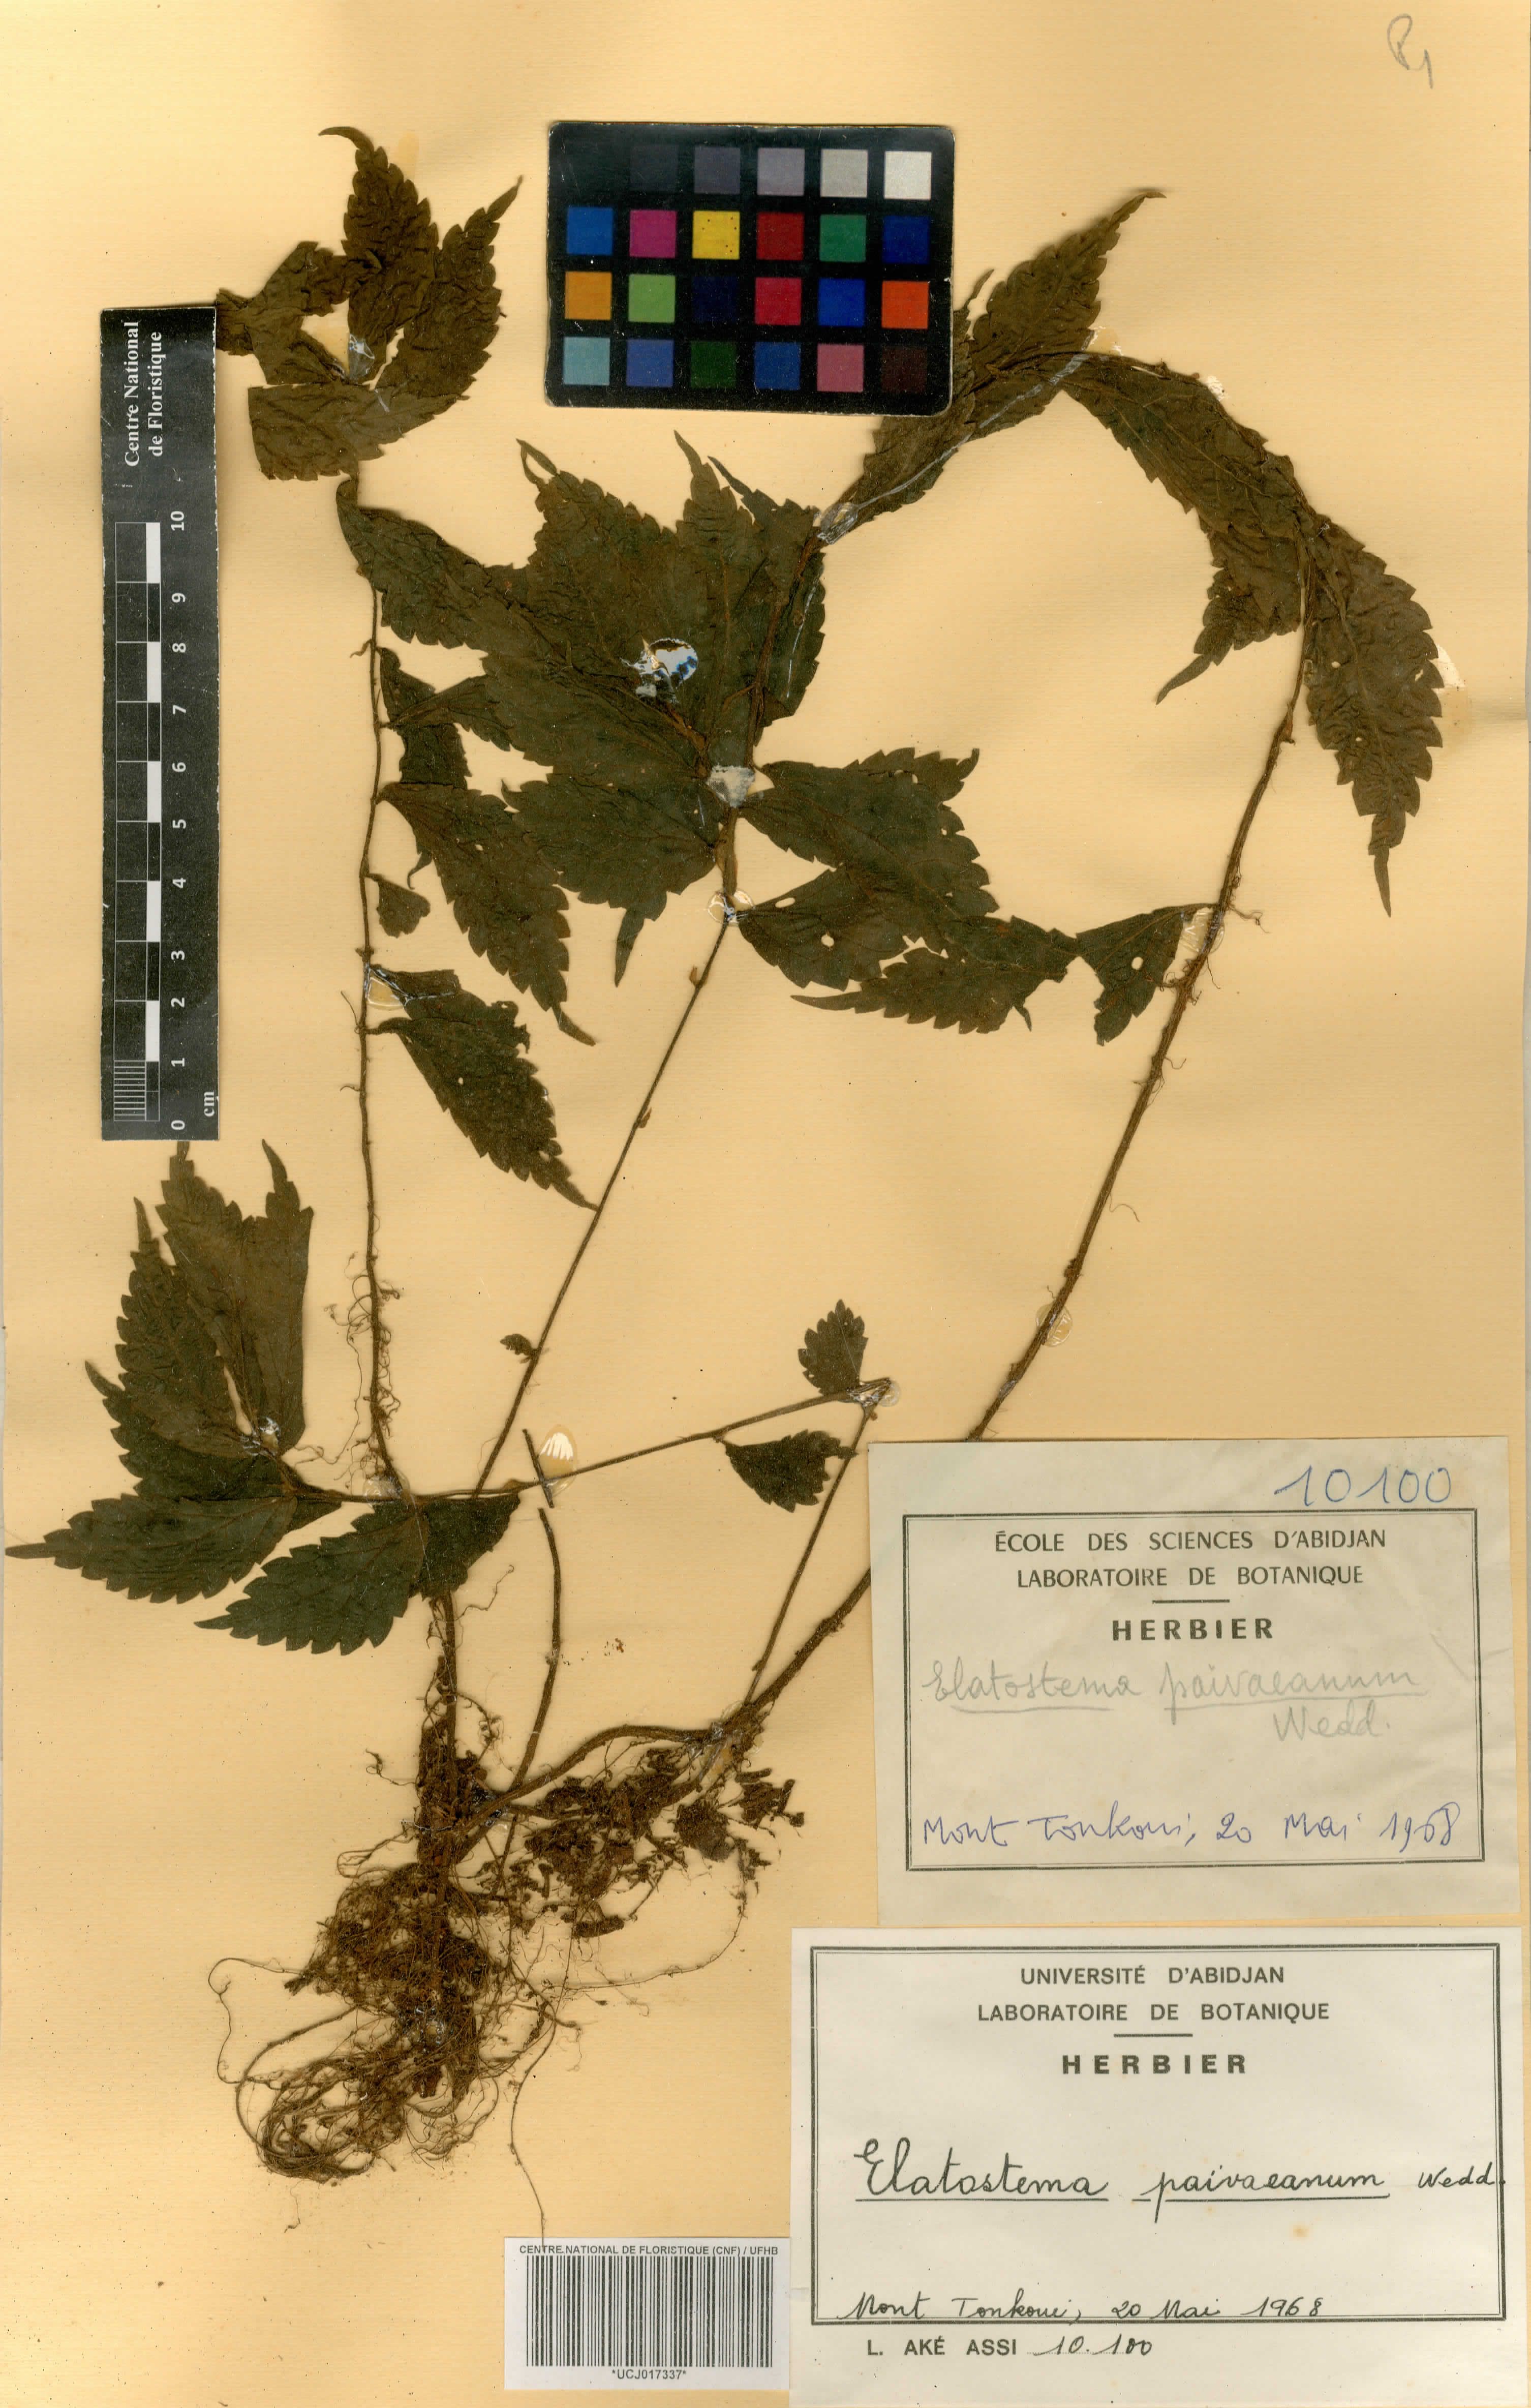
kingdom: Plantae
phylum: Tracheophyta
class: Magnoliopsida
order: Rosales
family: Urticaceae
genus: Elatostema
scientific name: Elatostema paivaeanum
